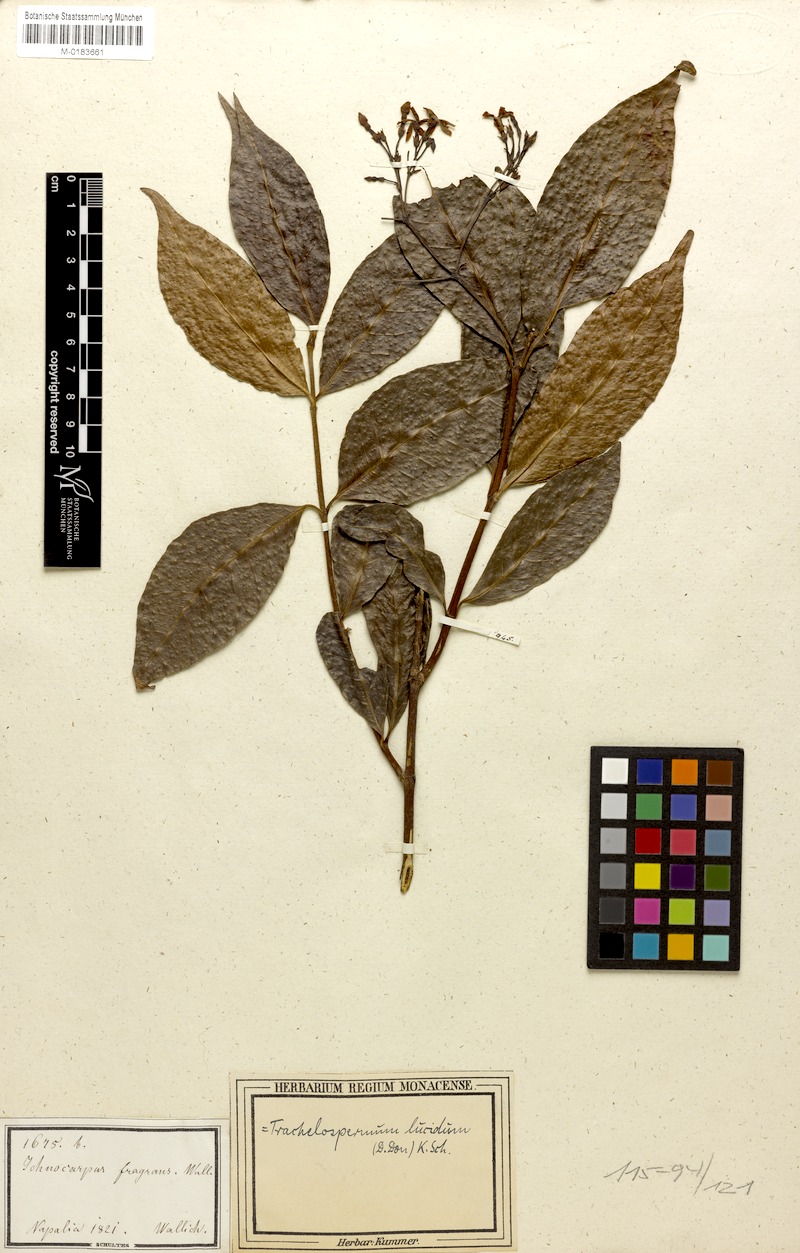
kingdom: Plantae
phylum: Tracheophyta
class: Magnoliopsida
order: Gentianales
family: Apocynaceae
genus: Trachelospermum
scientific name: Trachelospermum lucidum
